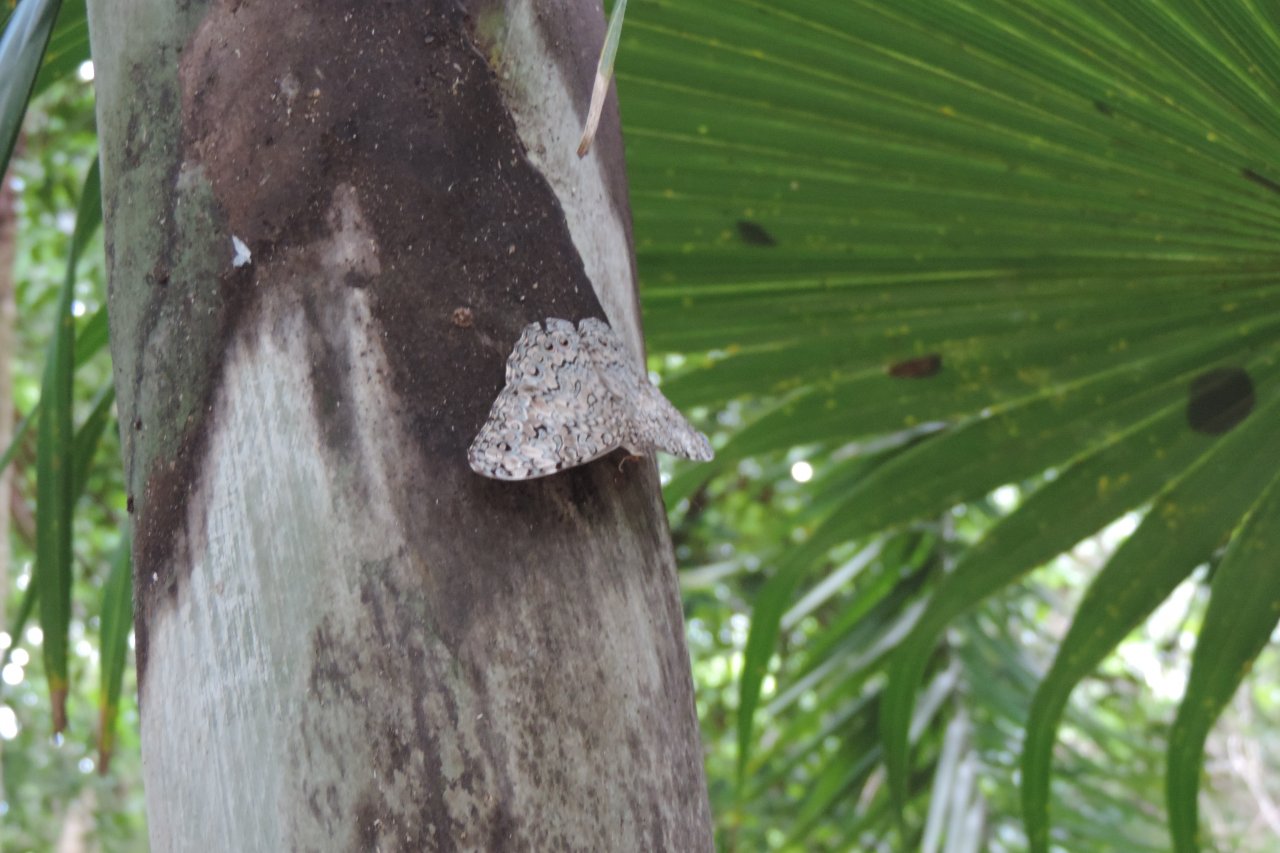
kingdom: Animalia
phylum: Arthropoda
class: Insecta
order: Lepidoptera
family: Nymphalidae
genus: Hamadryas
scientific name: Hamadryas februa
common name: Gray Cracker
